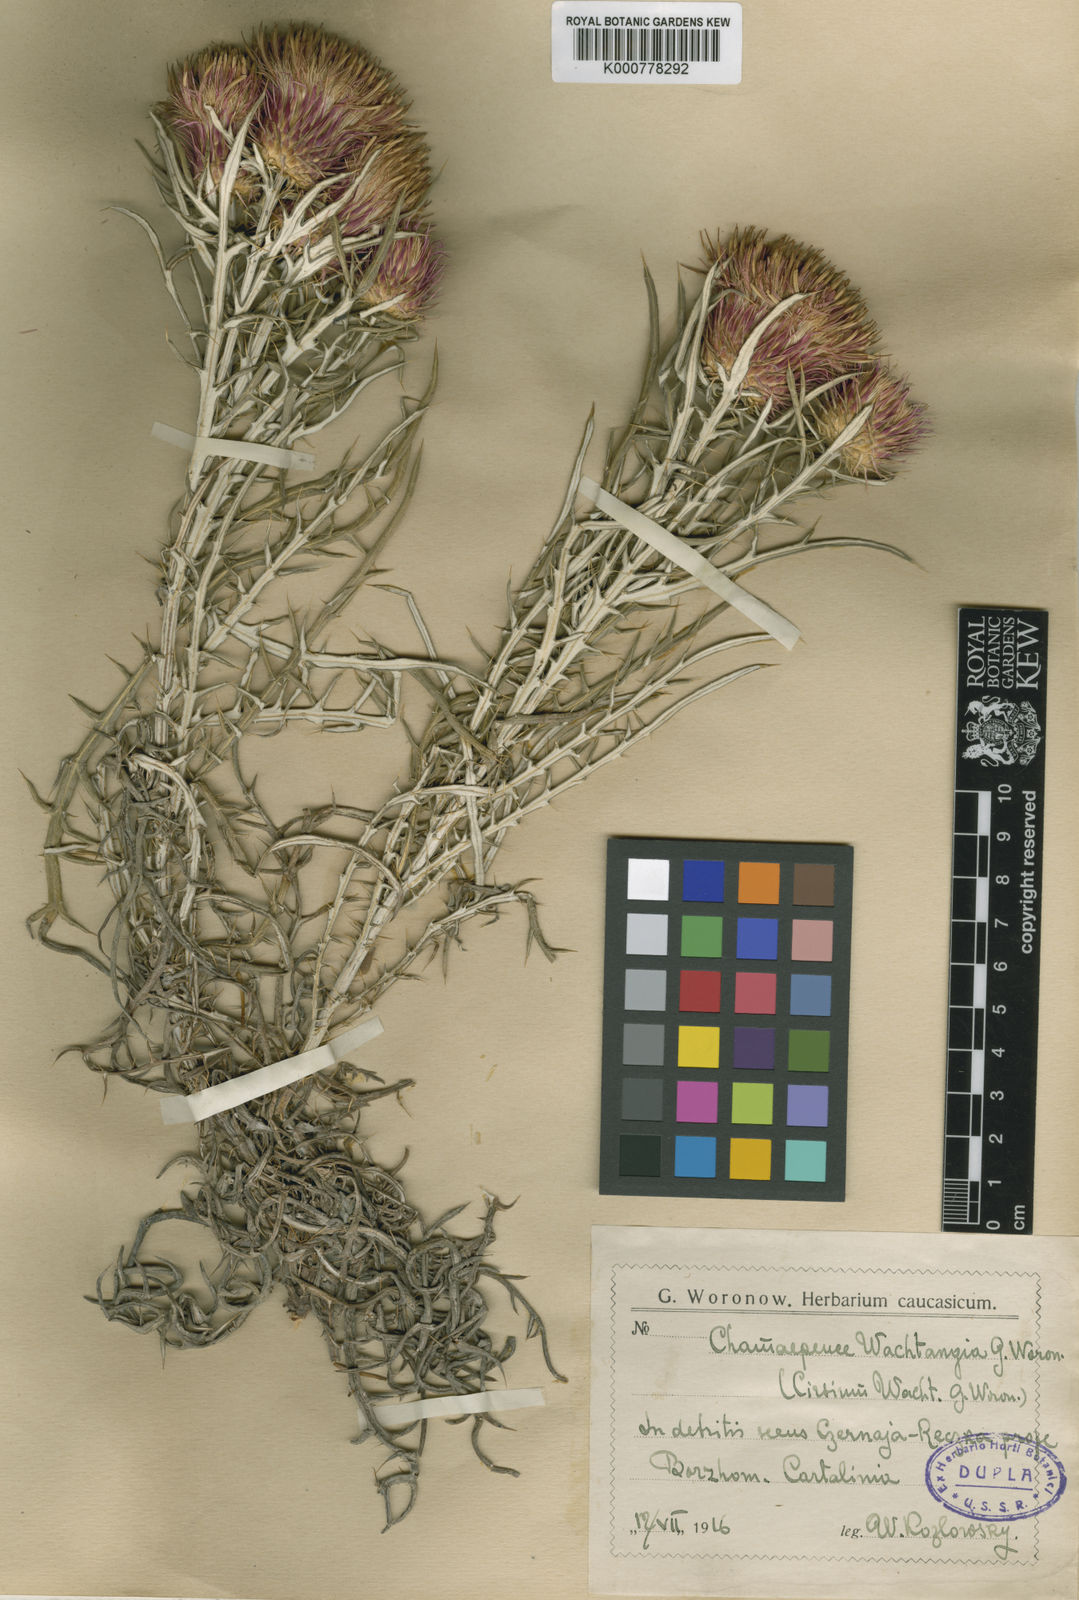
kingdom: Plantae
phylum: Tracheophyta
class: Magnoliopsida
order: Asterales
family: Asteraceae
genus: Ptilostemon
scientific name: Ptilostemon echinocephalus
